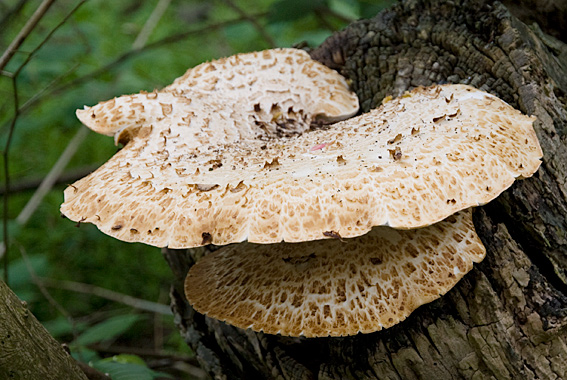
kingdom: Fungi
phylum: Basidiomycota
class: Agaricomycetes
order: Polyporales
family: Polyporaceae
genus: Cerioporus
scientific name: Cerioporus squamosus
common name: skællet stilkporesvamp
